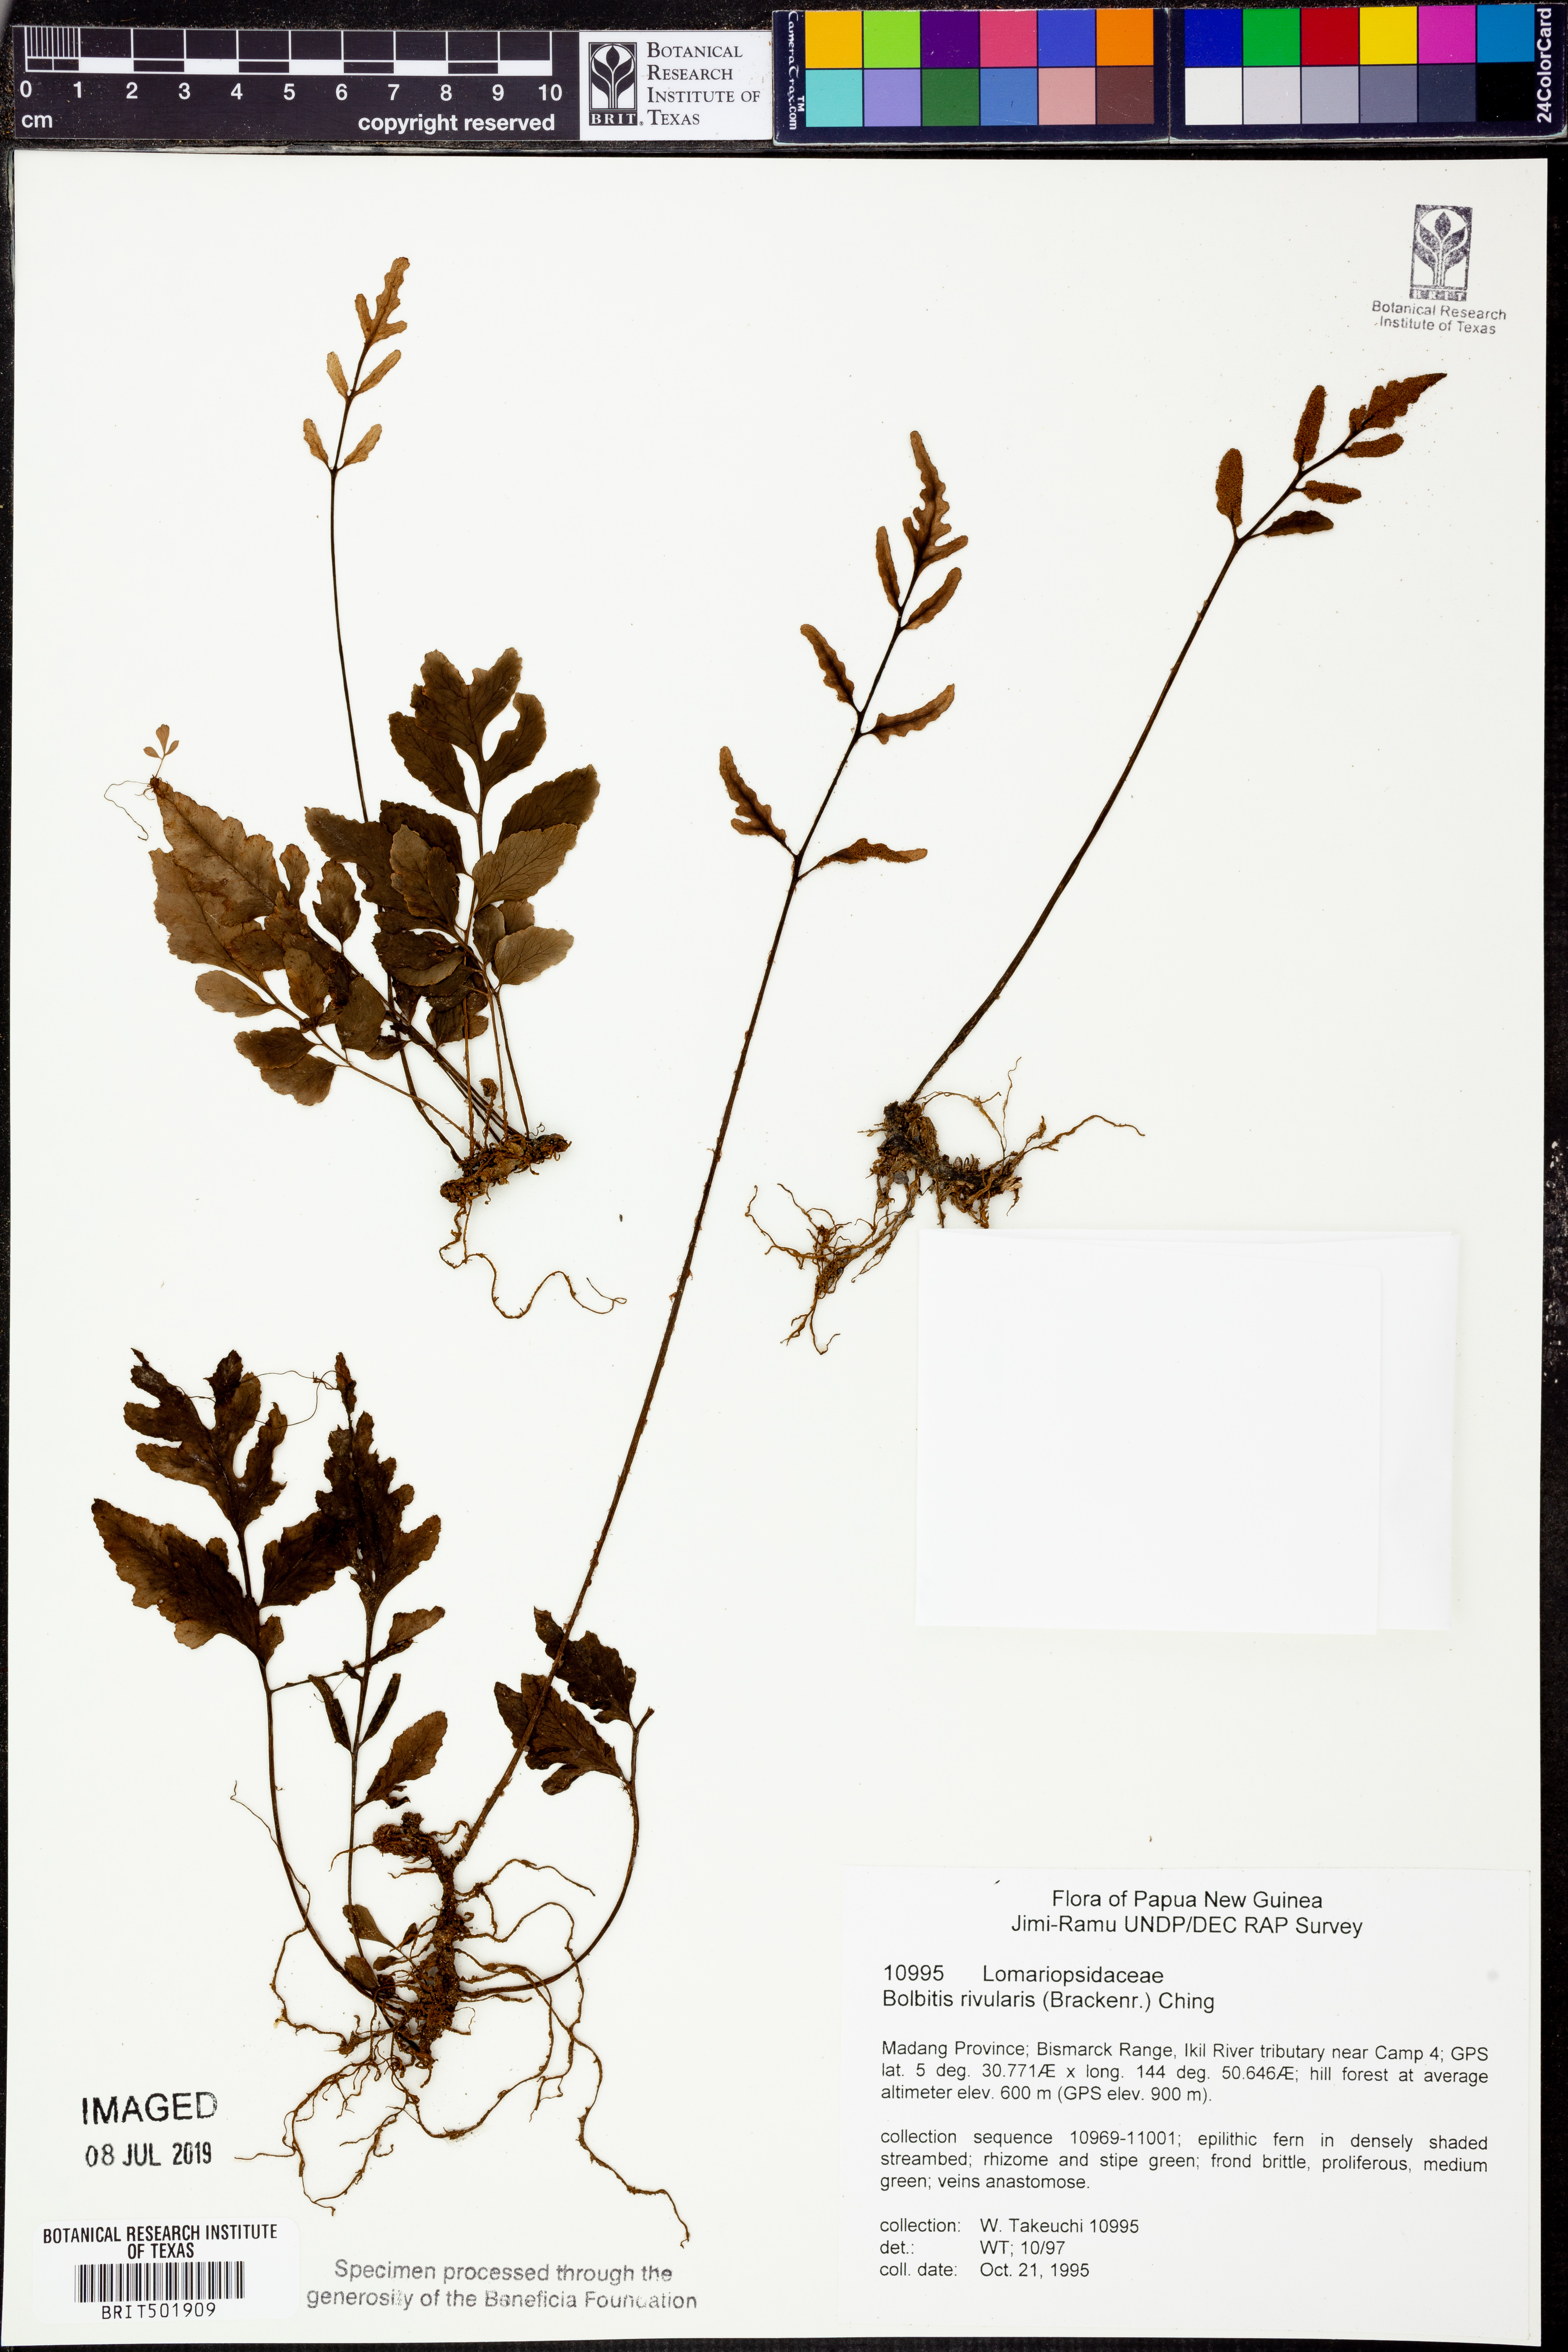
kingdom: Plantae
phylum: Tracheophyta
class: Polypodiopsida
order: Polypodiales
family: Dryopteridaceae
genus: Bolbitis
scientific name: Bolbitis rivularis
